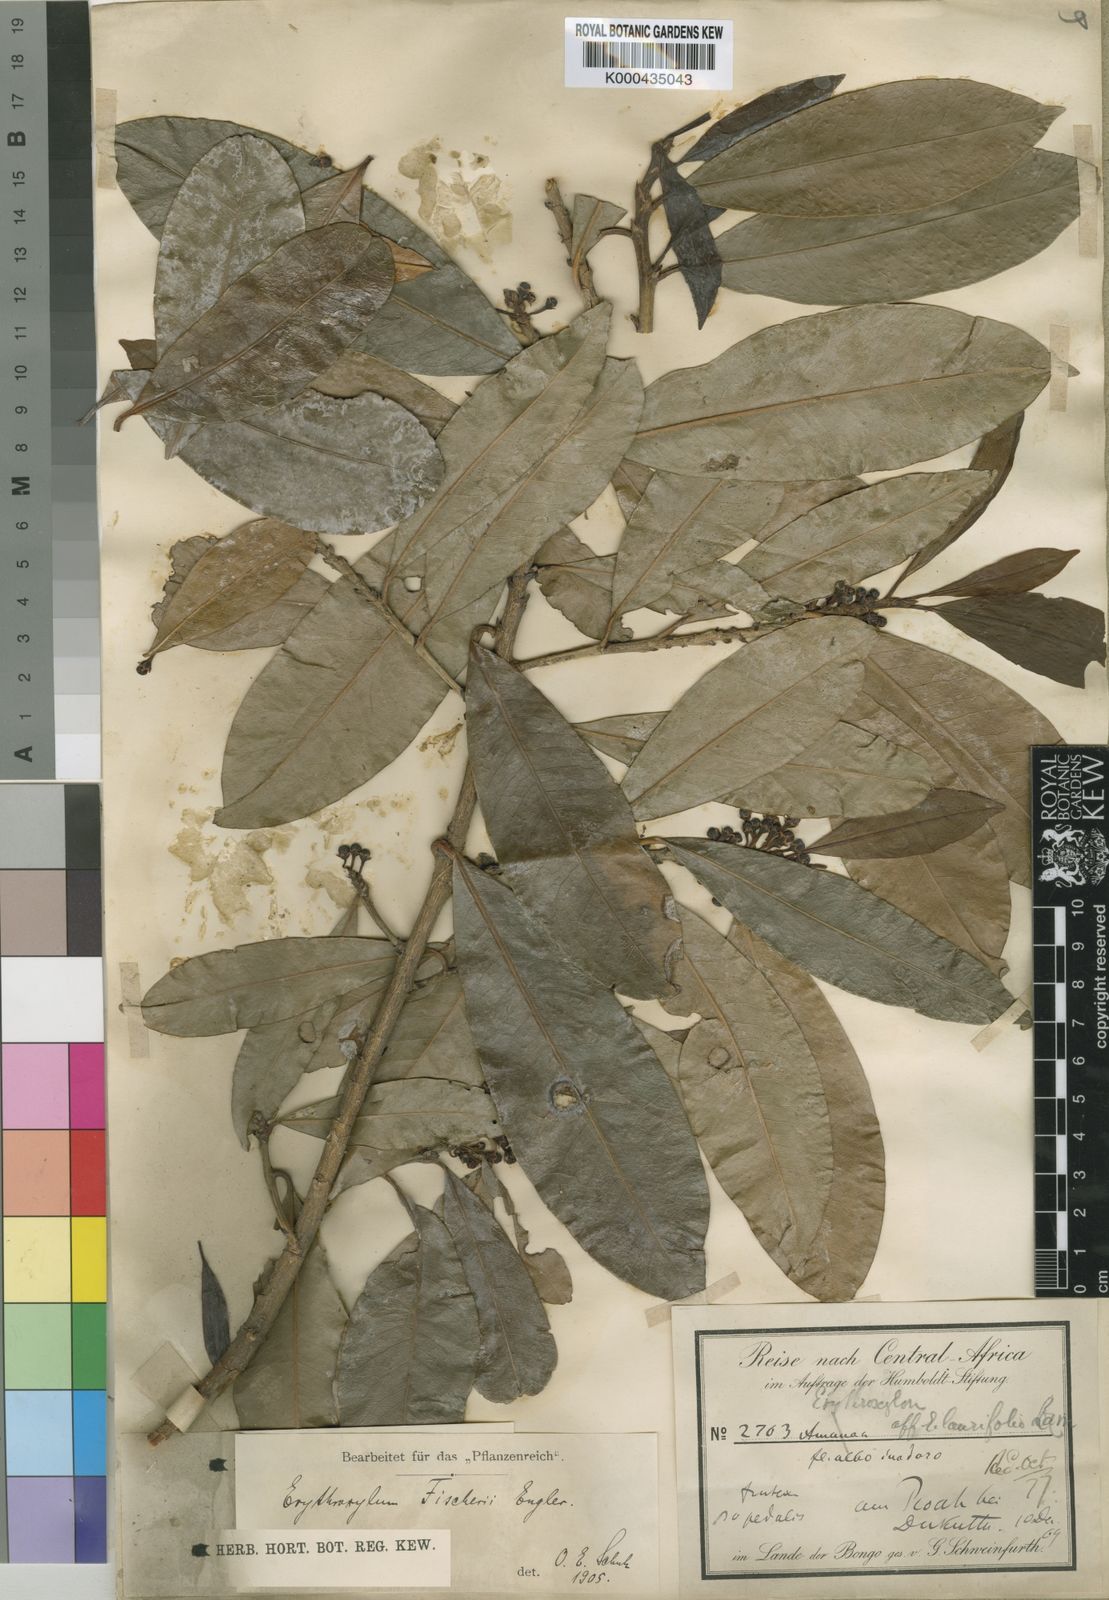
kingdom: Plantae
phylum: Tracheophyta
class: Magnoliopsida
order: Malpighiales
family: Erythroxylaceae
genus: Erythroxylum
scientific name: Erythroxylum fischeri
